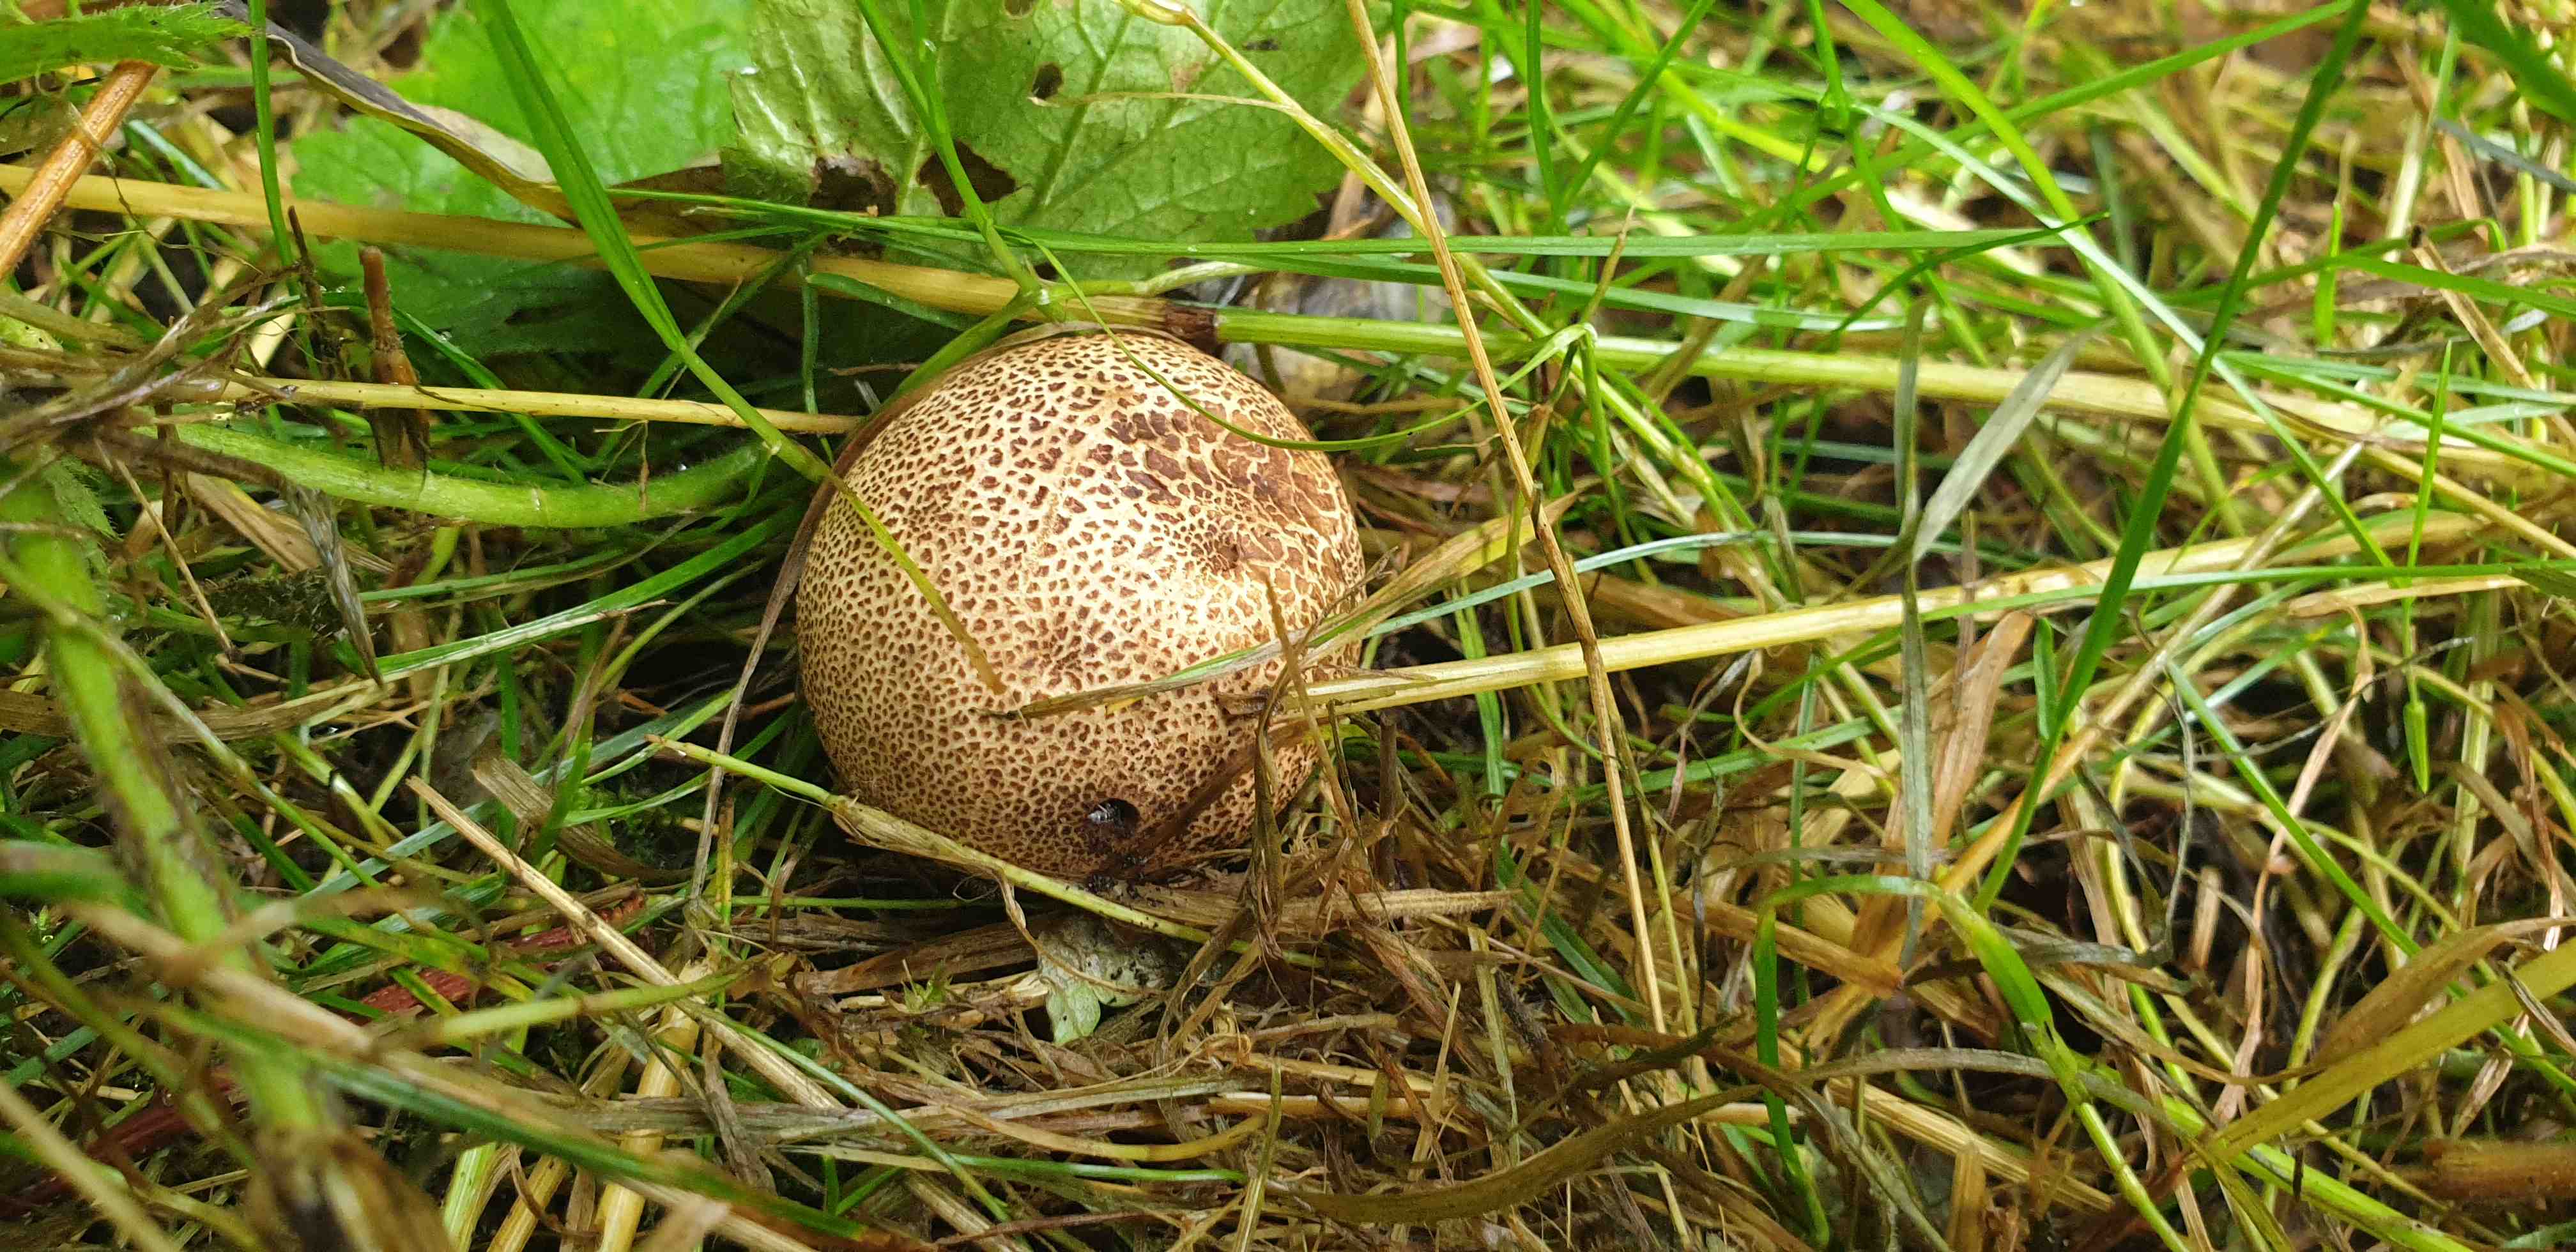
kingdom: Fungi
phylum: Basidiomycota
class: Agaricomycetes
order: Boletales
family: Sclerodermataceae
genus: Scleroderma
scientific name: Scleroderma verrucosum
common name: stilket bruskbold
